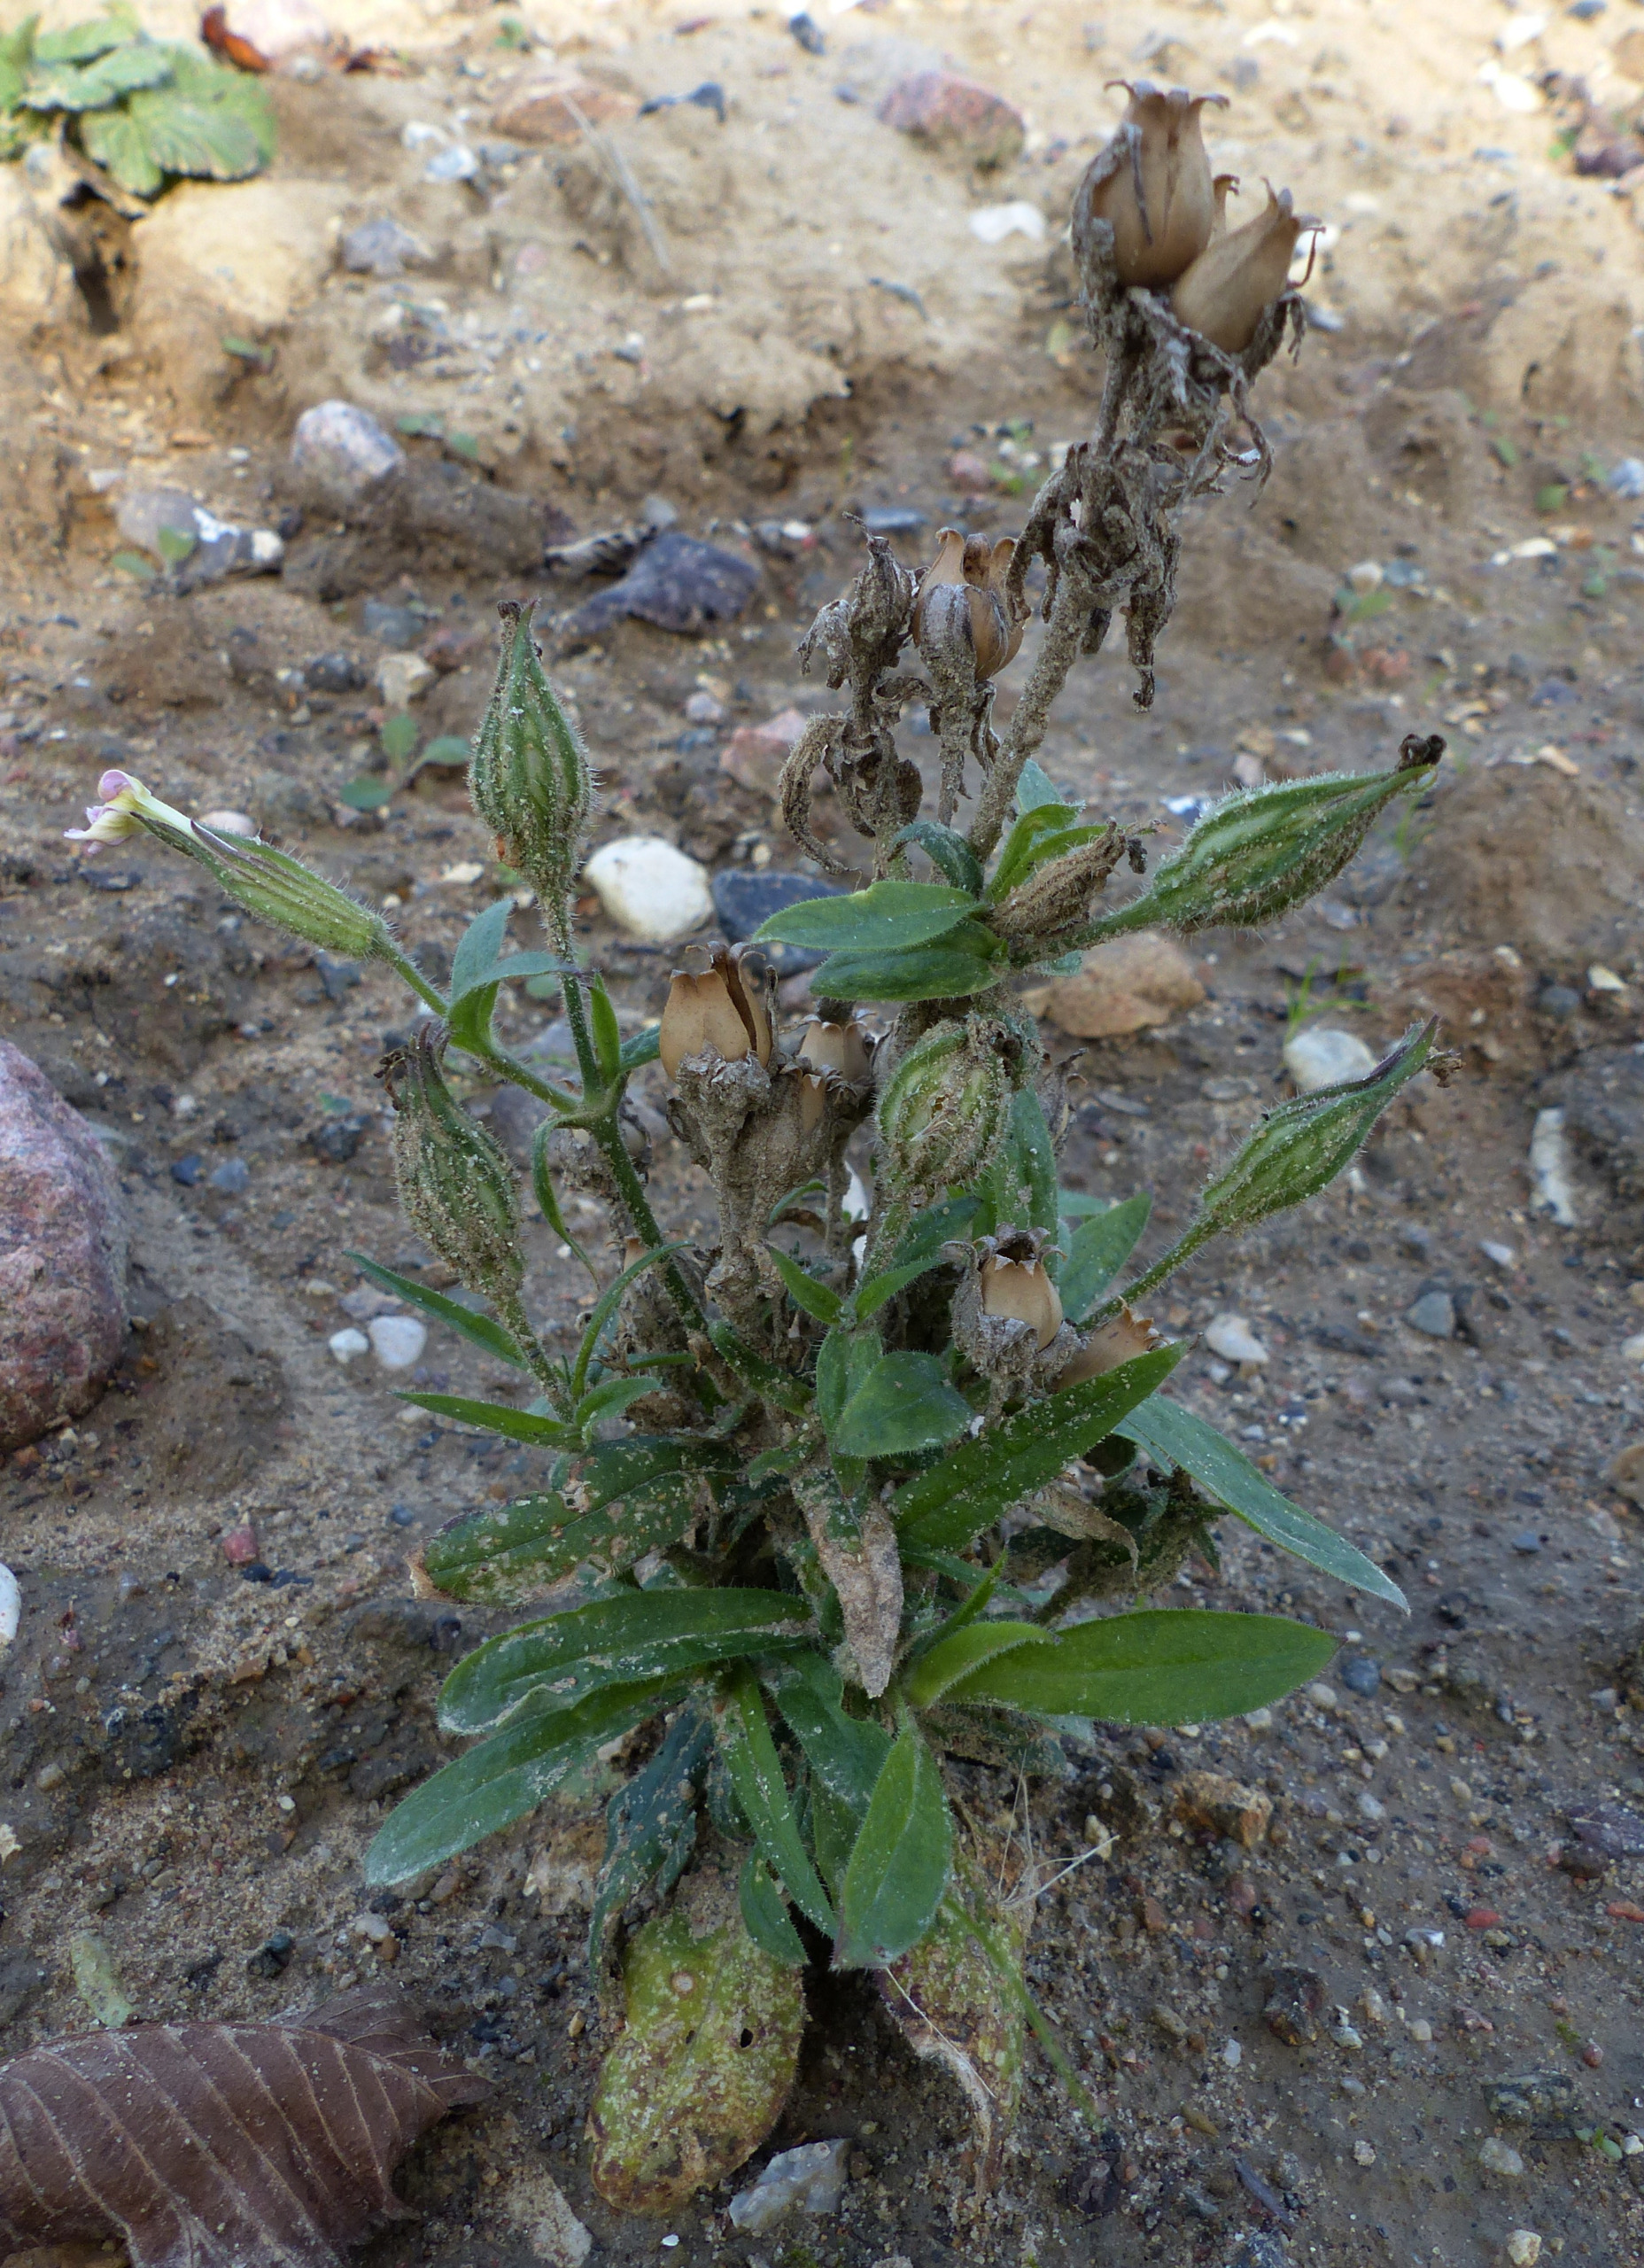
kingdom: Plantae
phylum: Tracheophyta
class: Magnoliopsida
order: Caryophyllales
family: Caryophyllaceae
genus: Silene
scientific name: Silene noctiflora
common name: Nat-limurt
